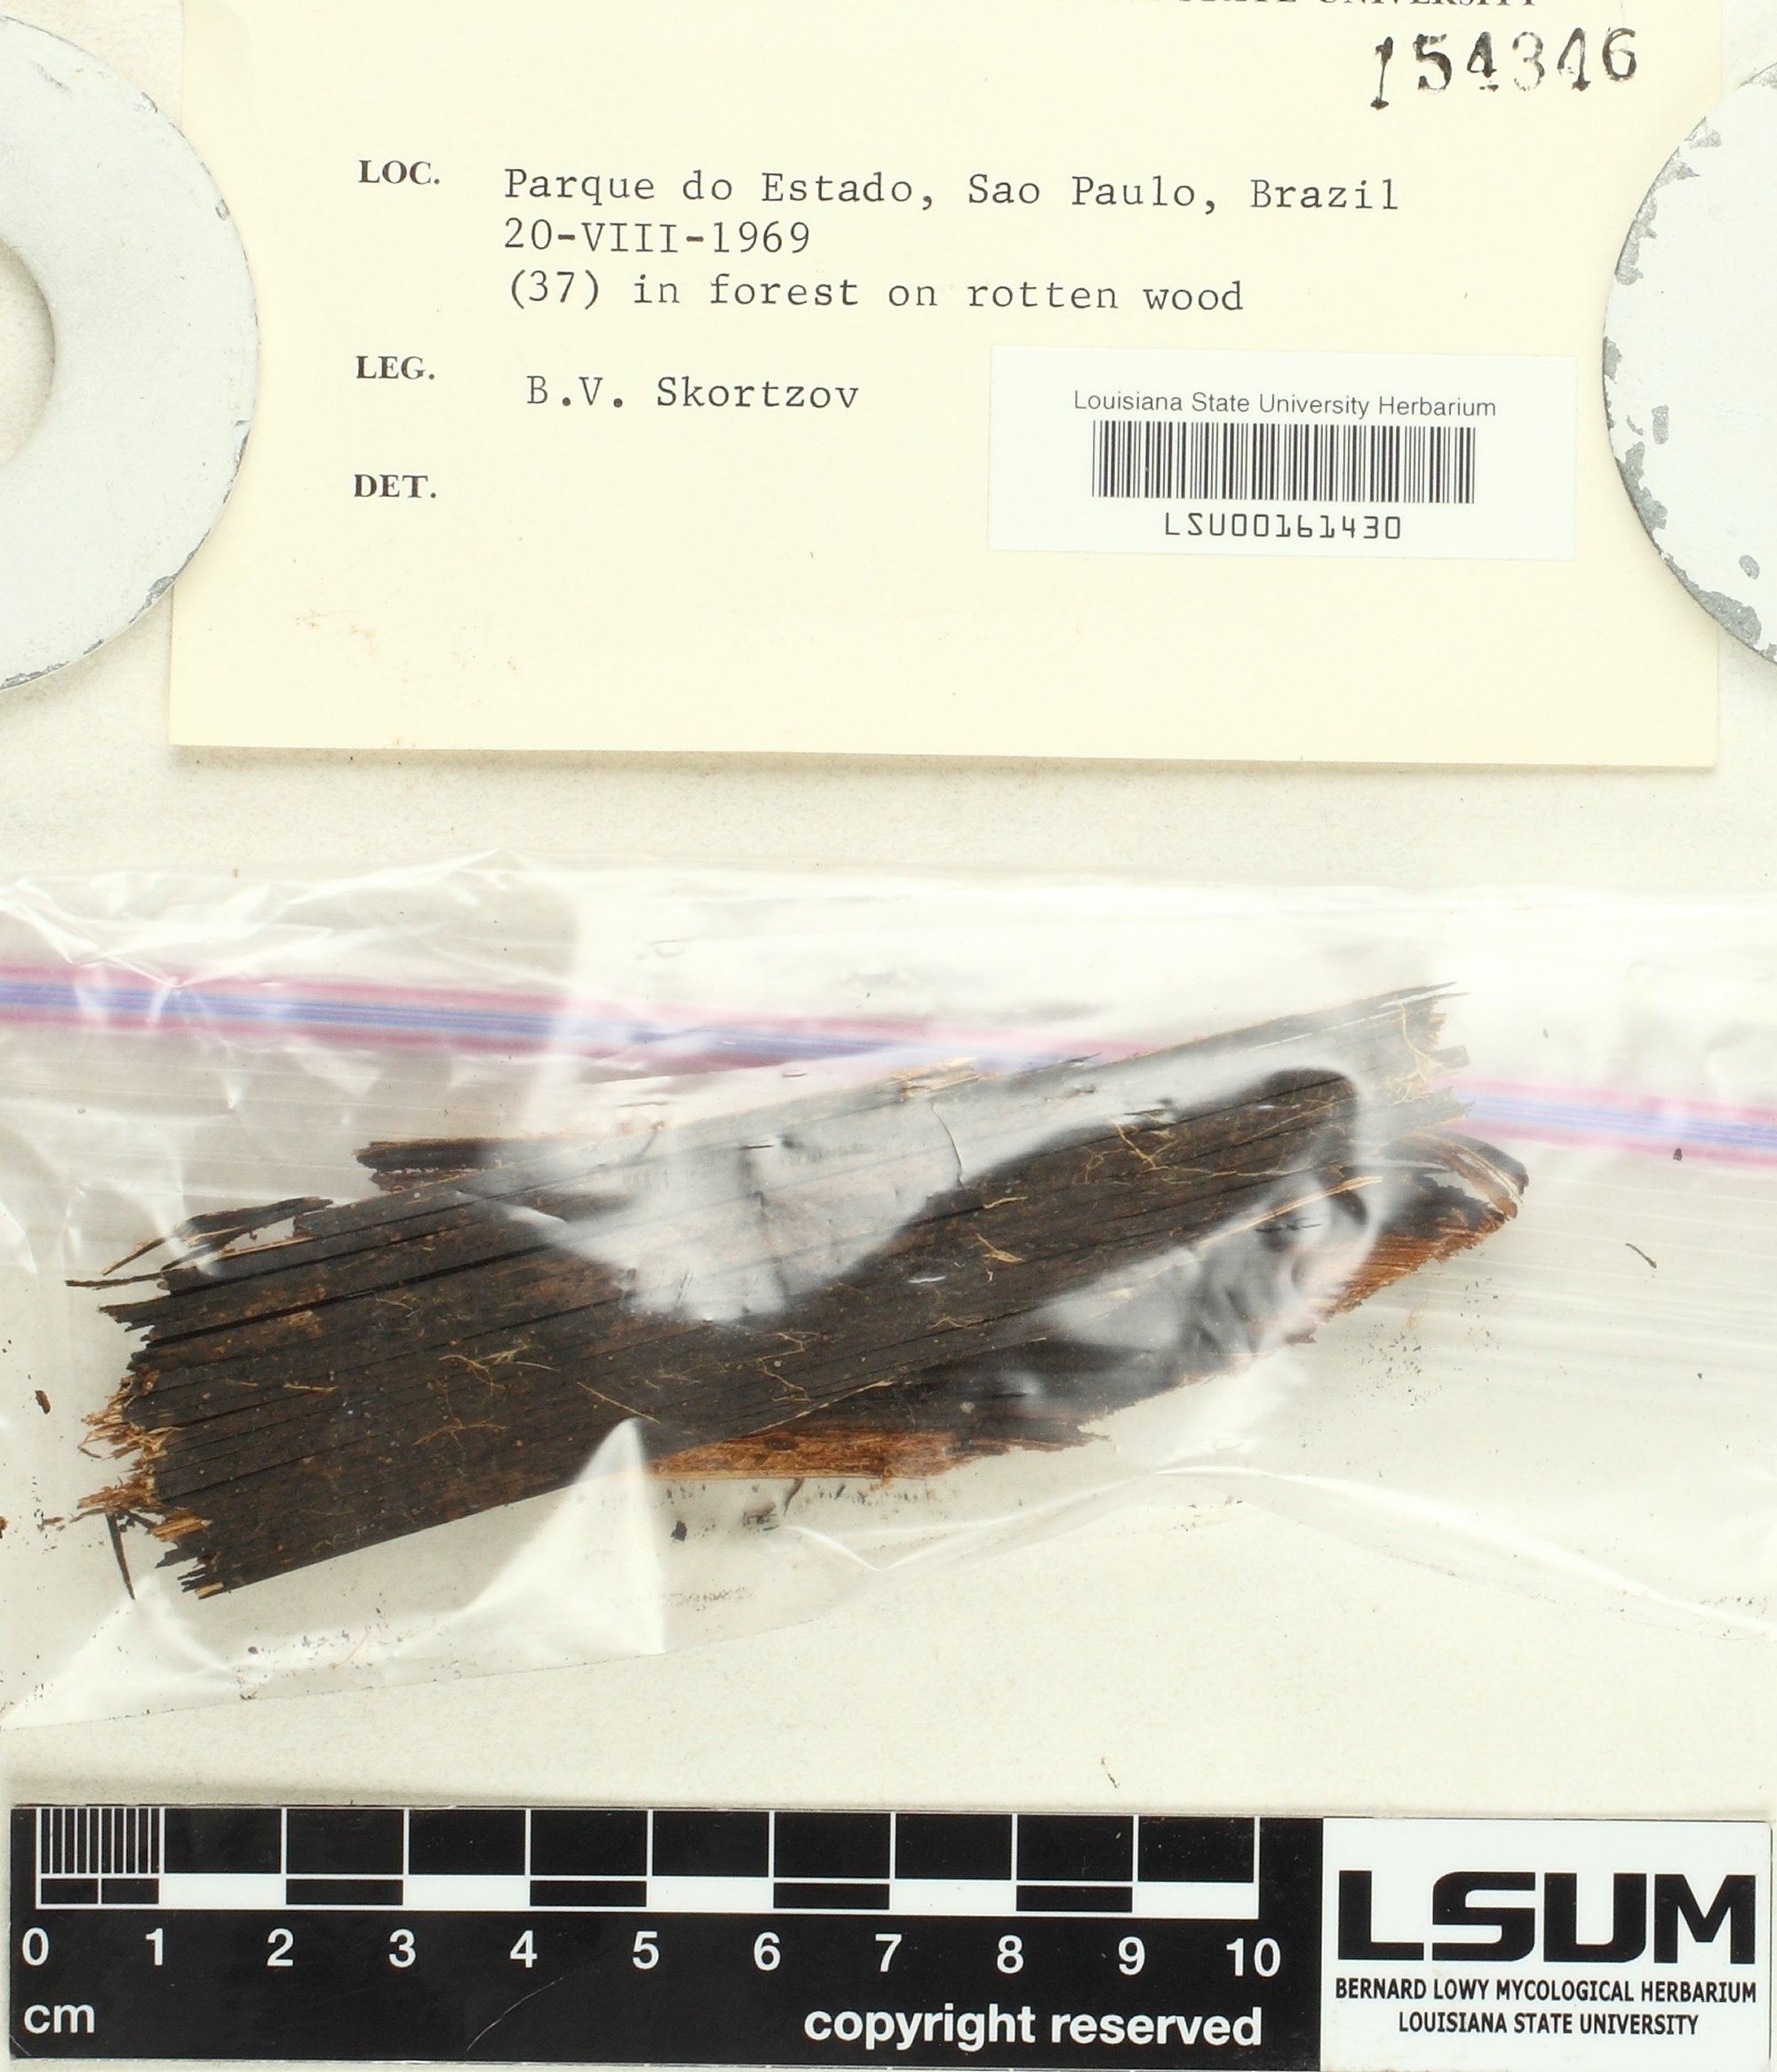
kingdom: Fungi
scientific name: Fungi
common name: Fungi
